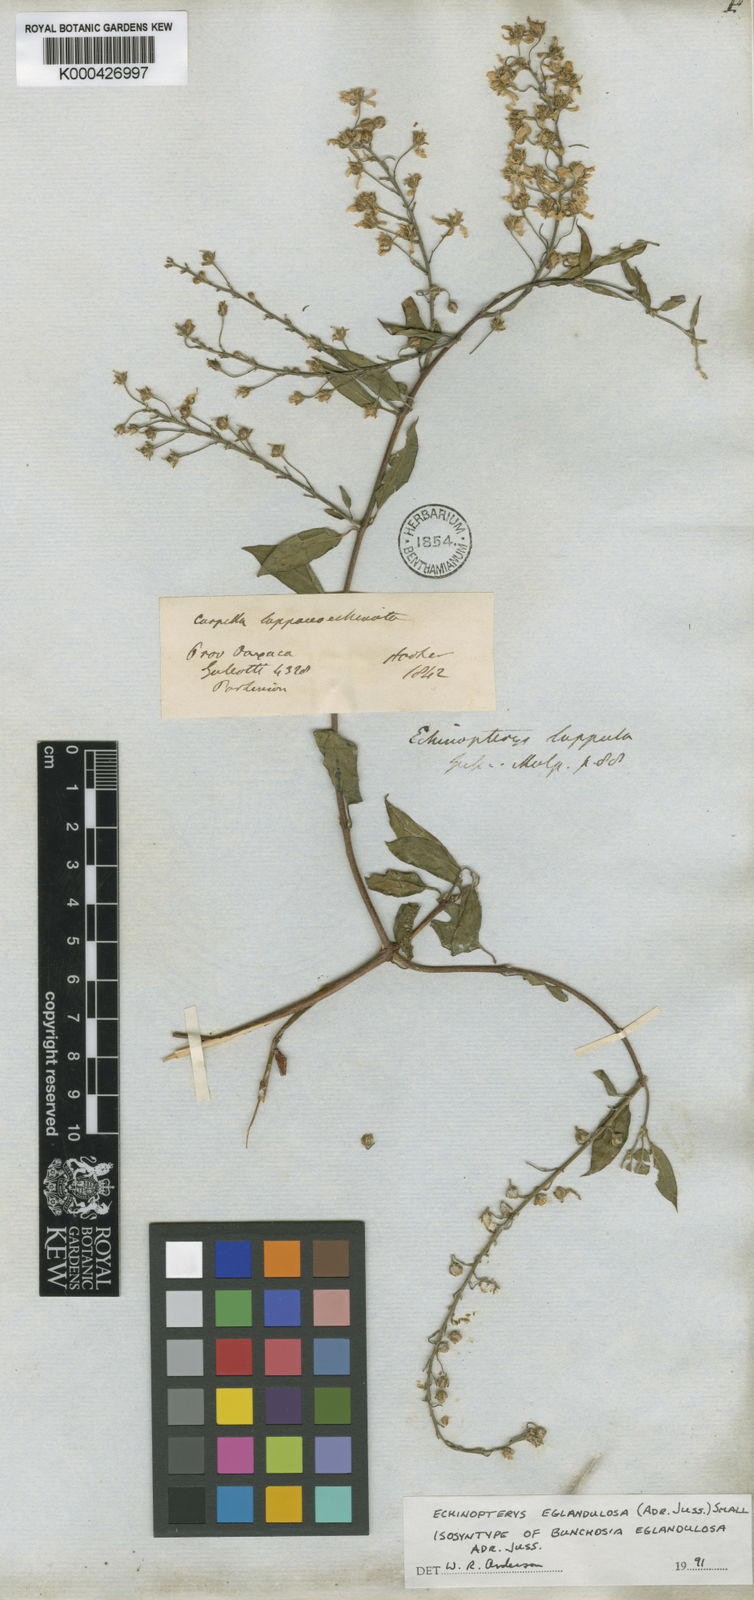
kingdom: Plantae
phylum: Tracheophyta
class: Magnoliopsida
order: Malpighiales
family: Malpighiaceae
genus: Echinopterys
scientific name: Echinopterys eglandulosa
